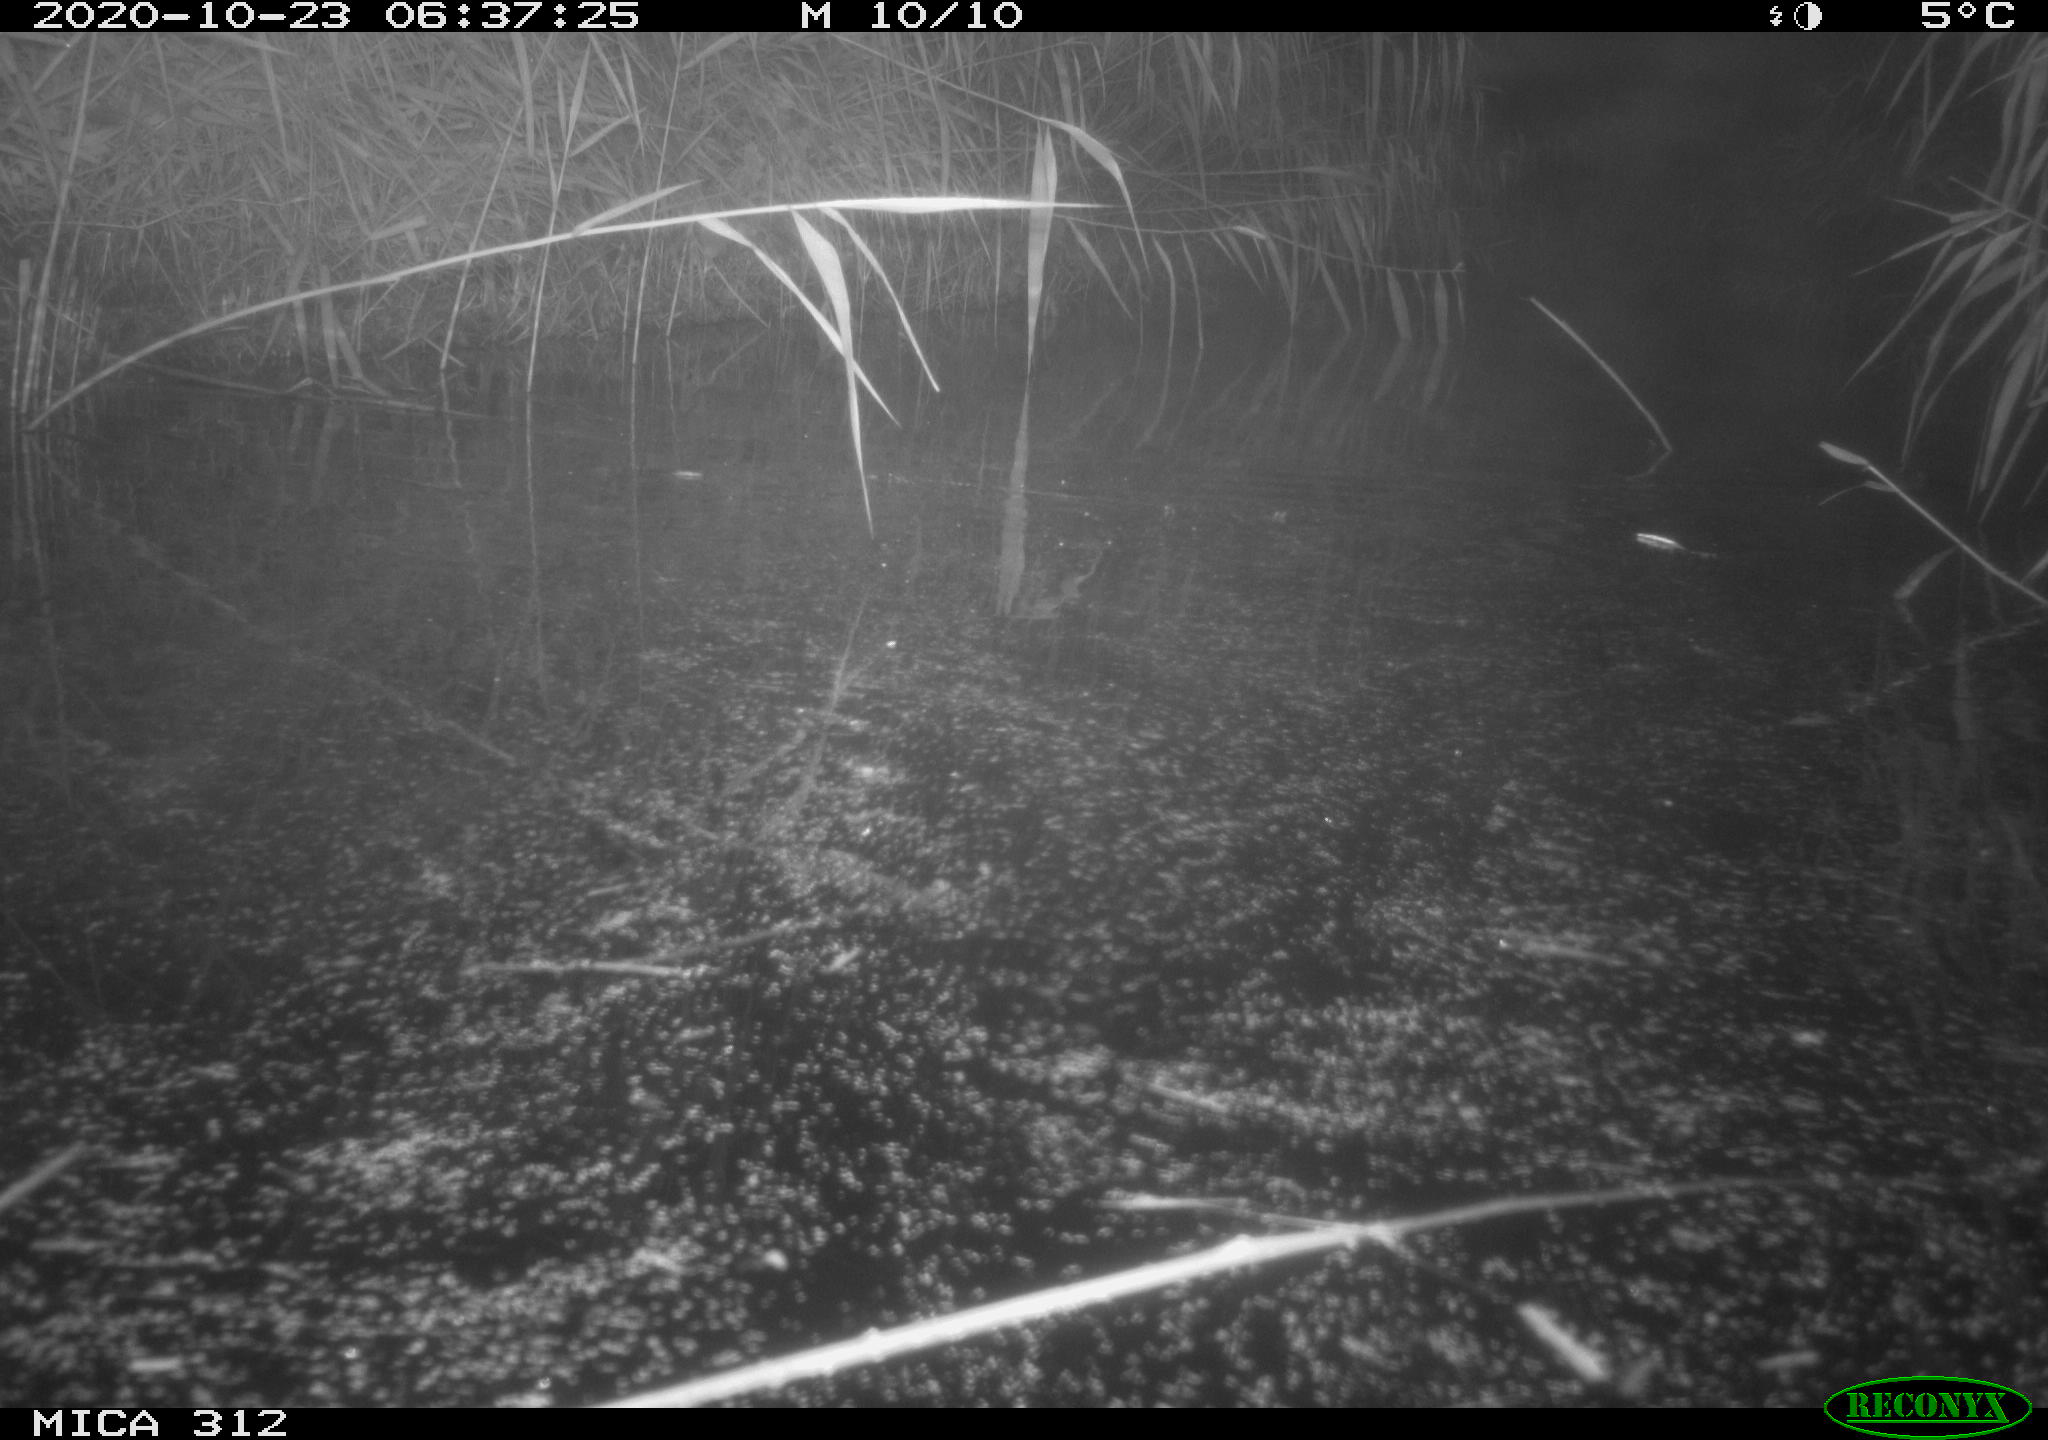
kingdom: Animalia
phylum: Chordata
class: Mammalia
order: Rodentia
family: Muridae
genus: Rattus
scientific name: Rattus norvegicus
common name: Brown rat
